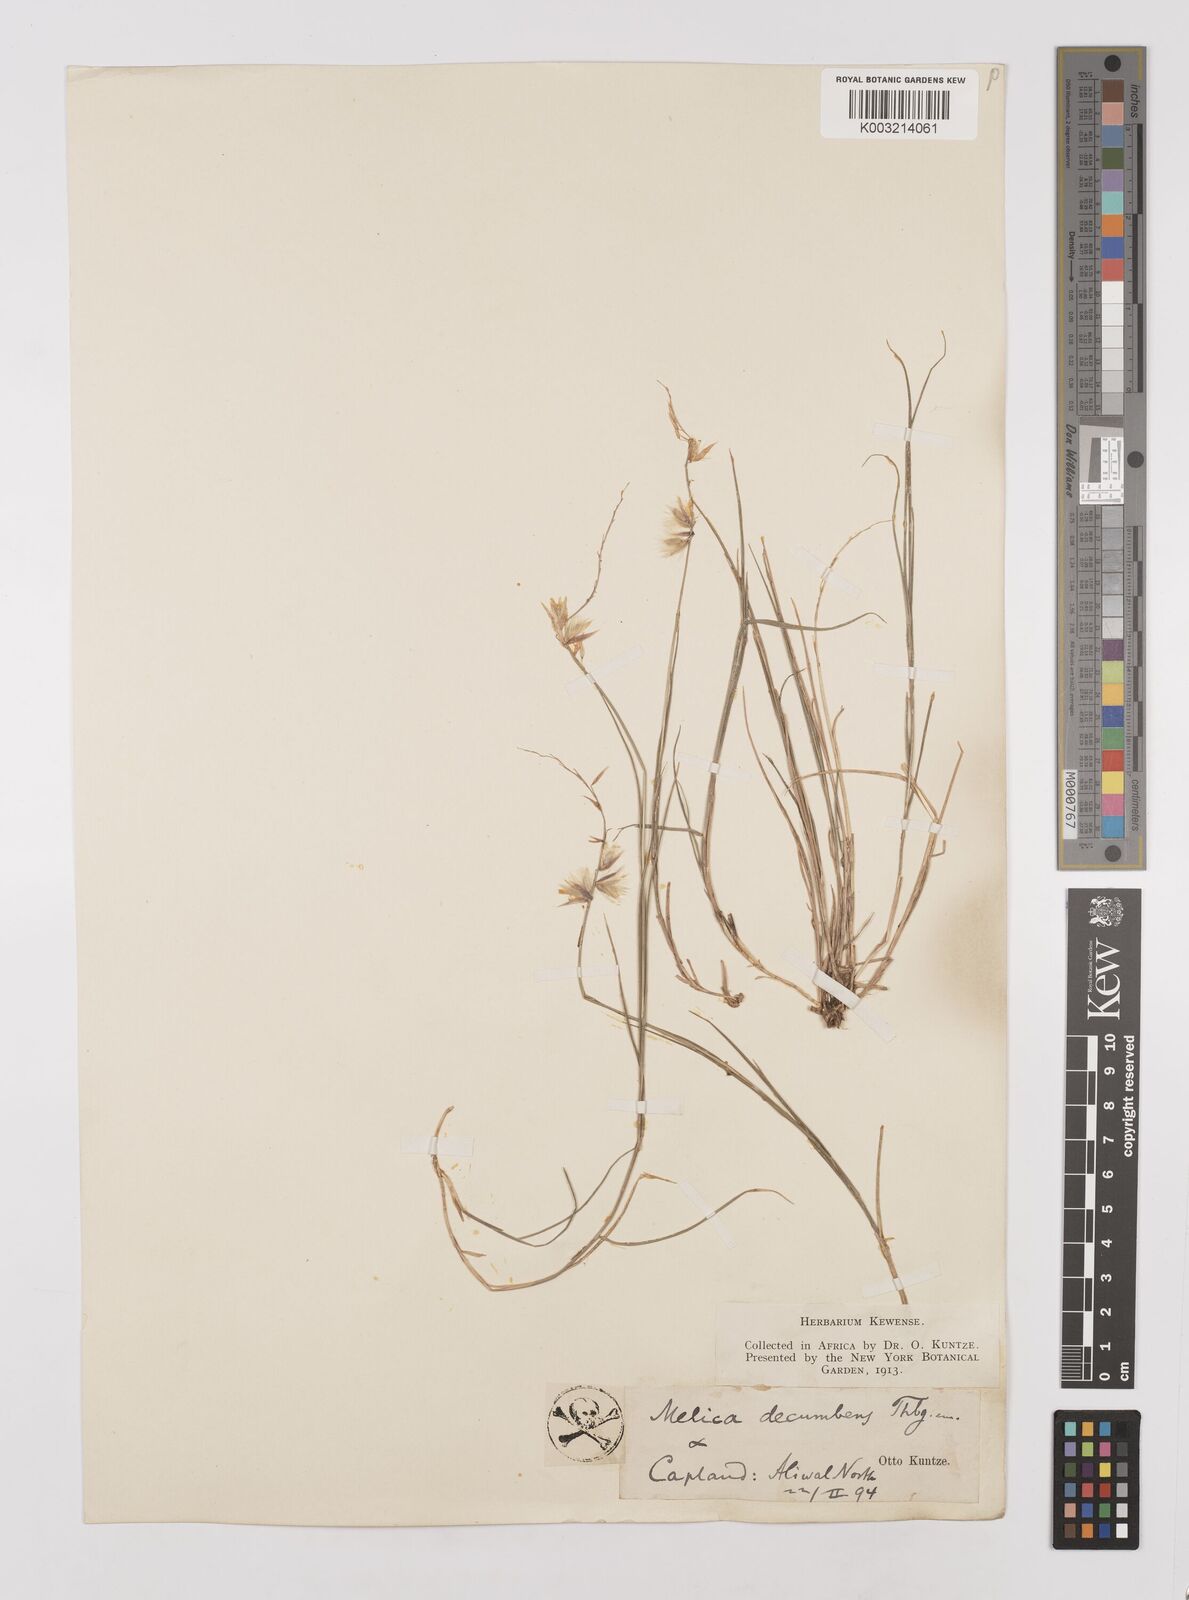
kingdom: Plantae
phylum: Tracheophyta
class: Liliopsida
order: Poales
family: Poaceae
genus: Melica
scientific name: Melica dendroides
